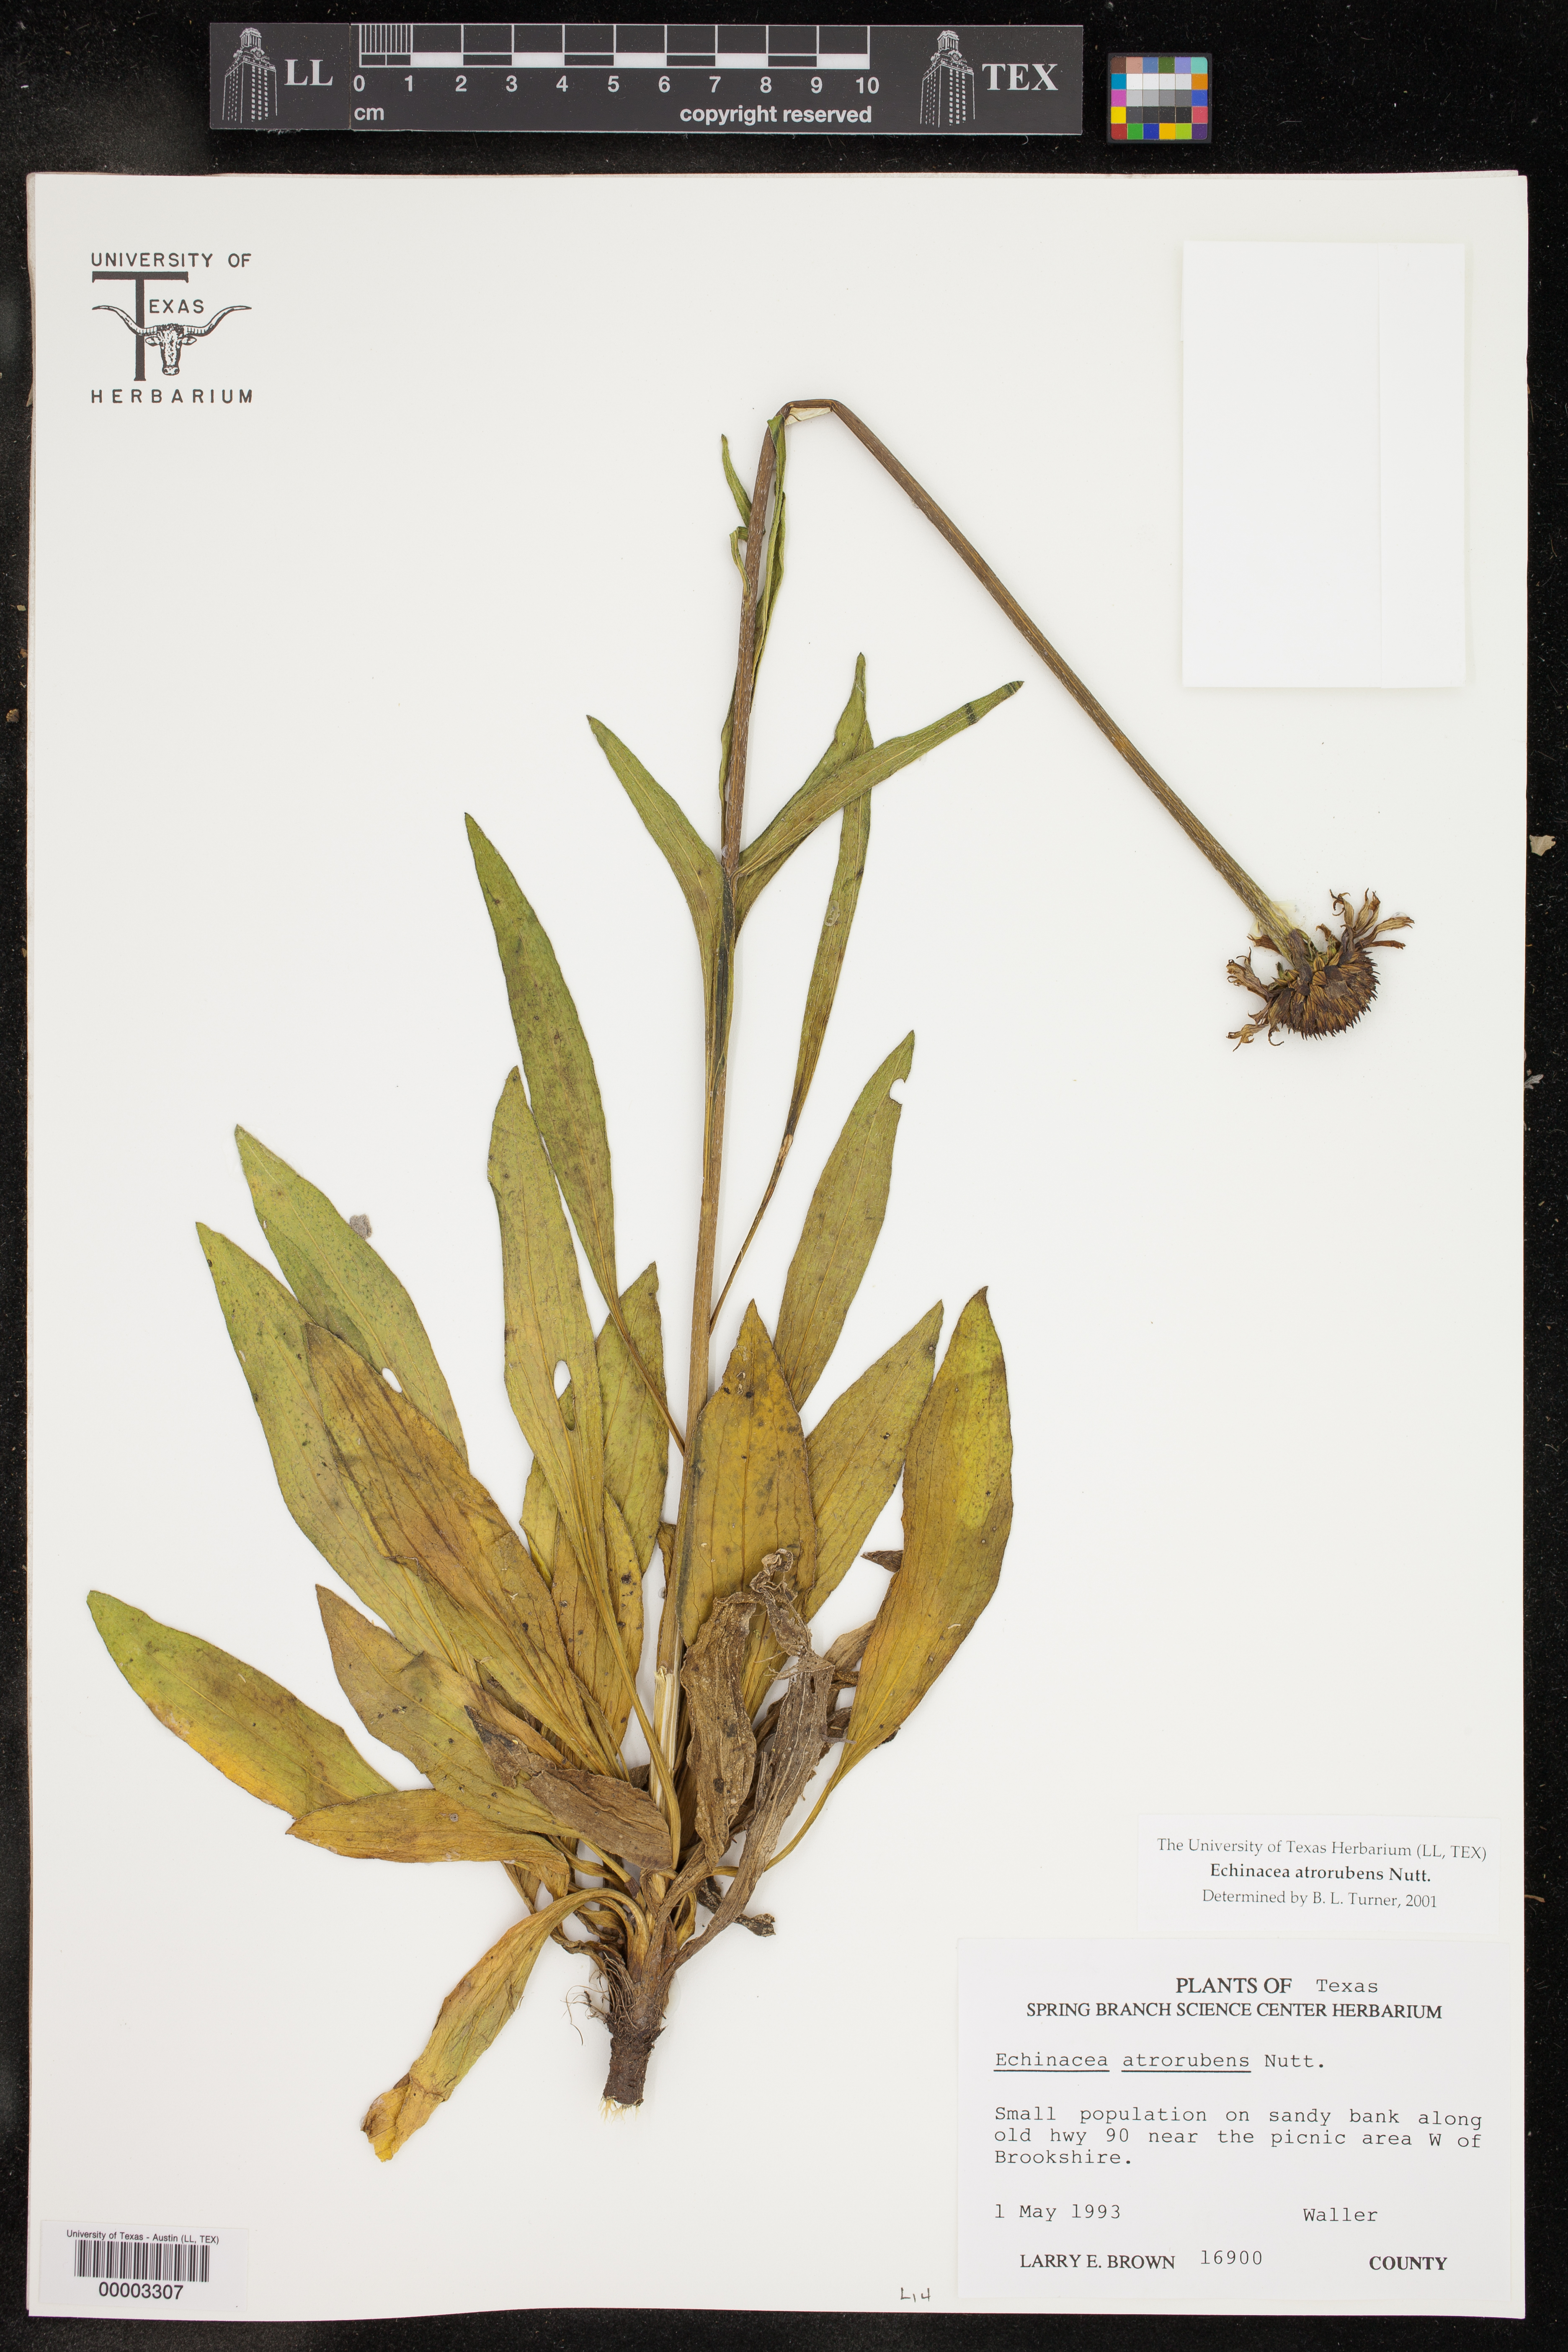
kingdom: Plantae
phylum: Tracheophyta
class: Magnoliopsida
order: Asterales
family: Asteraceae
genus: Echinacea
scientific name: Echinacea atrorubens
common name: Topeka purple-coneflower
